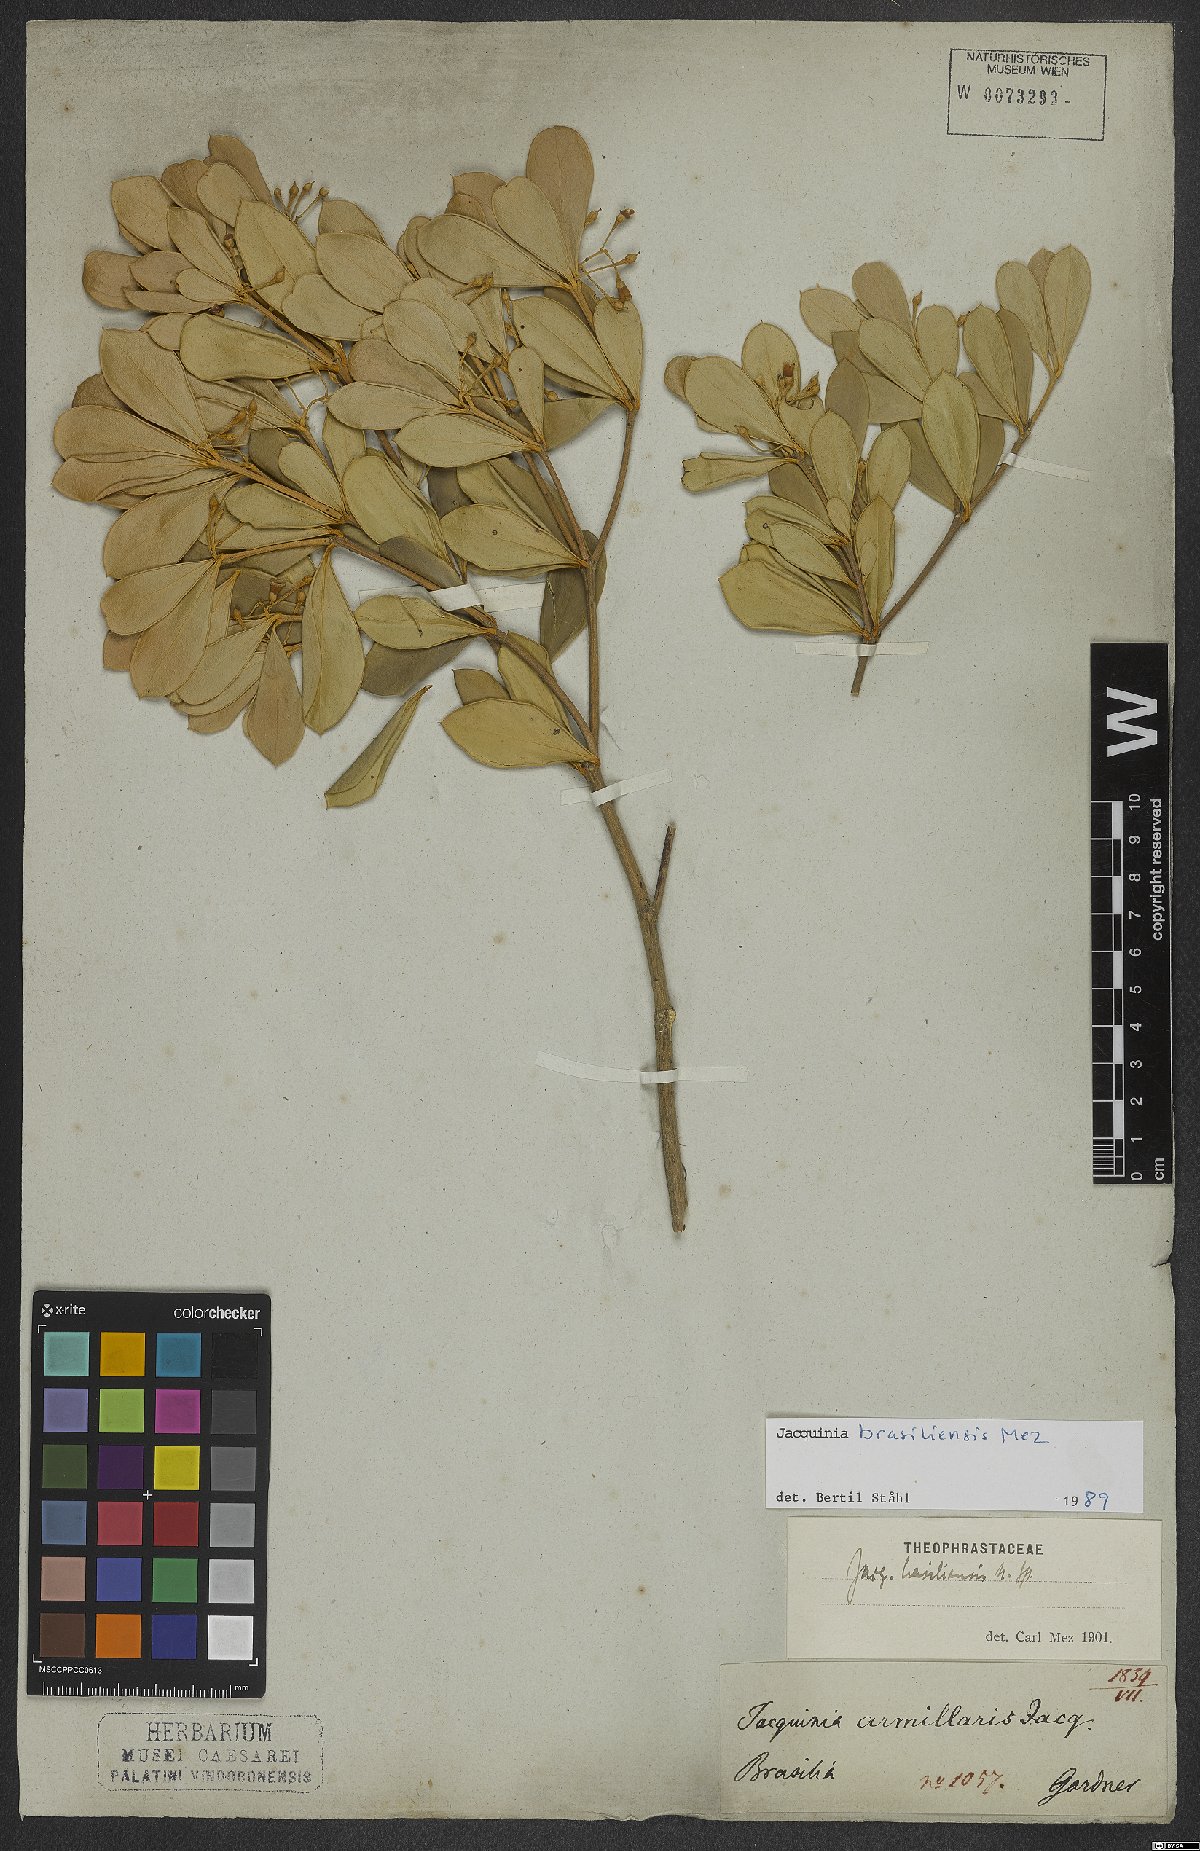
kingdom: Plantae
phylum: Tracheophyta
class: Magnoliopsida
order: Ericales
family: Primulaceae
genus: Jacquinia
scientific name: Jacquinia armillaris
